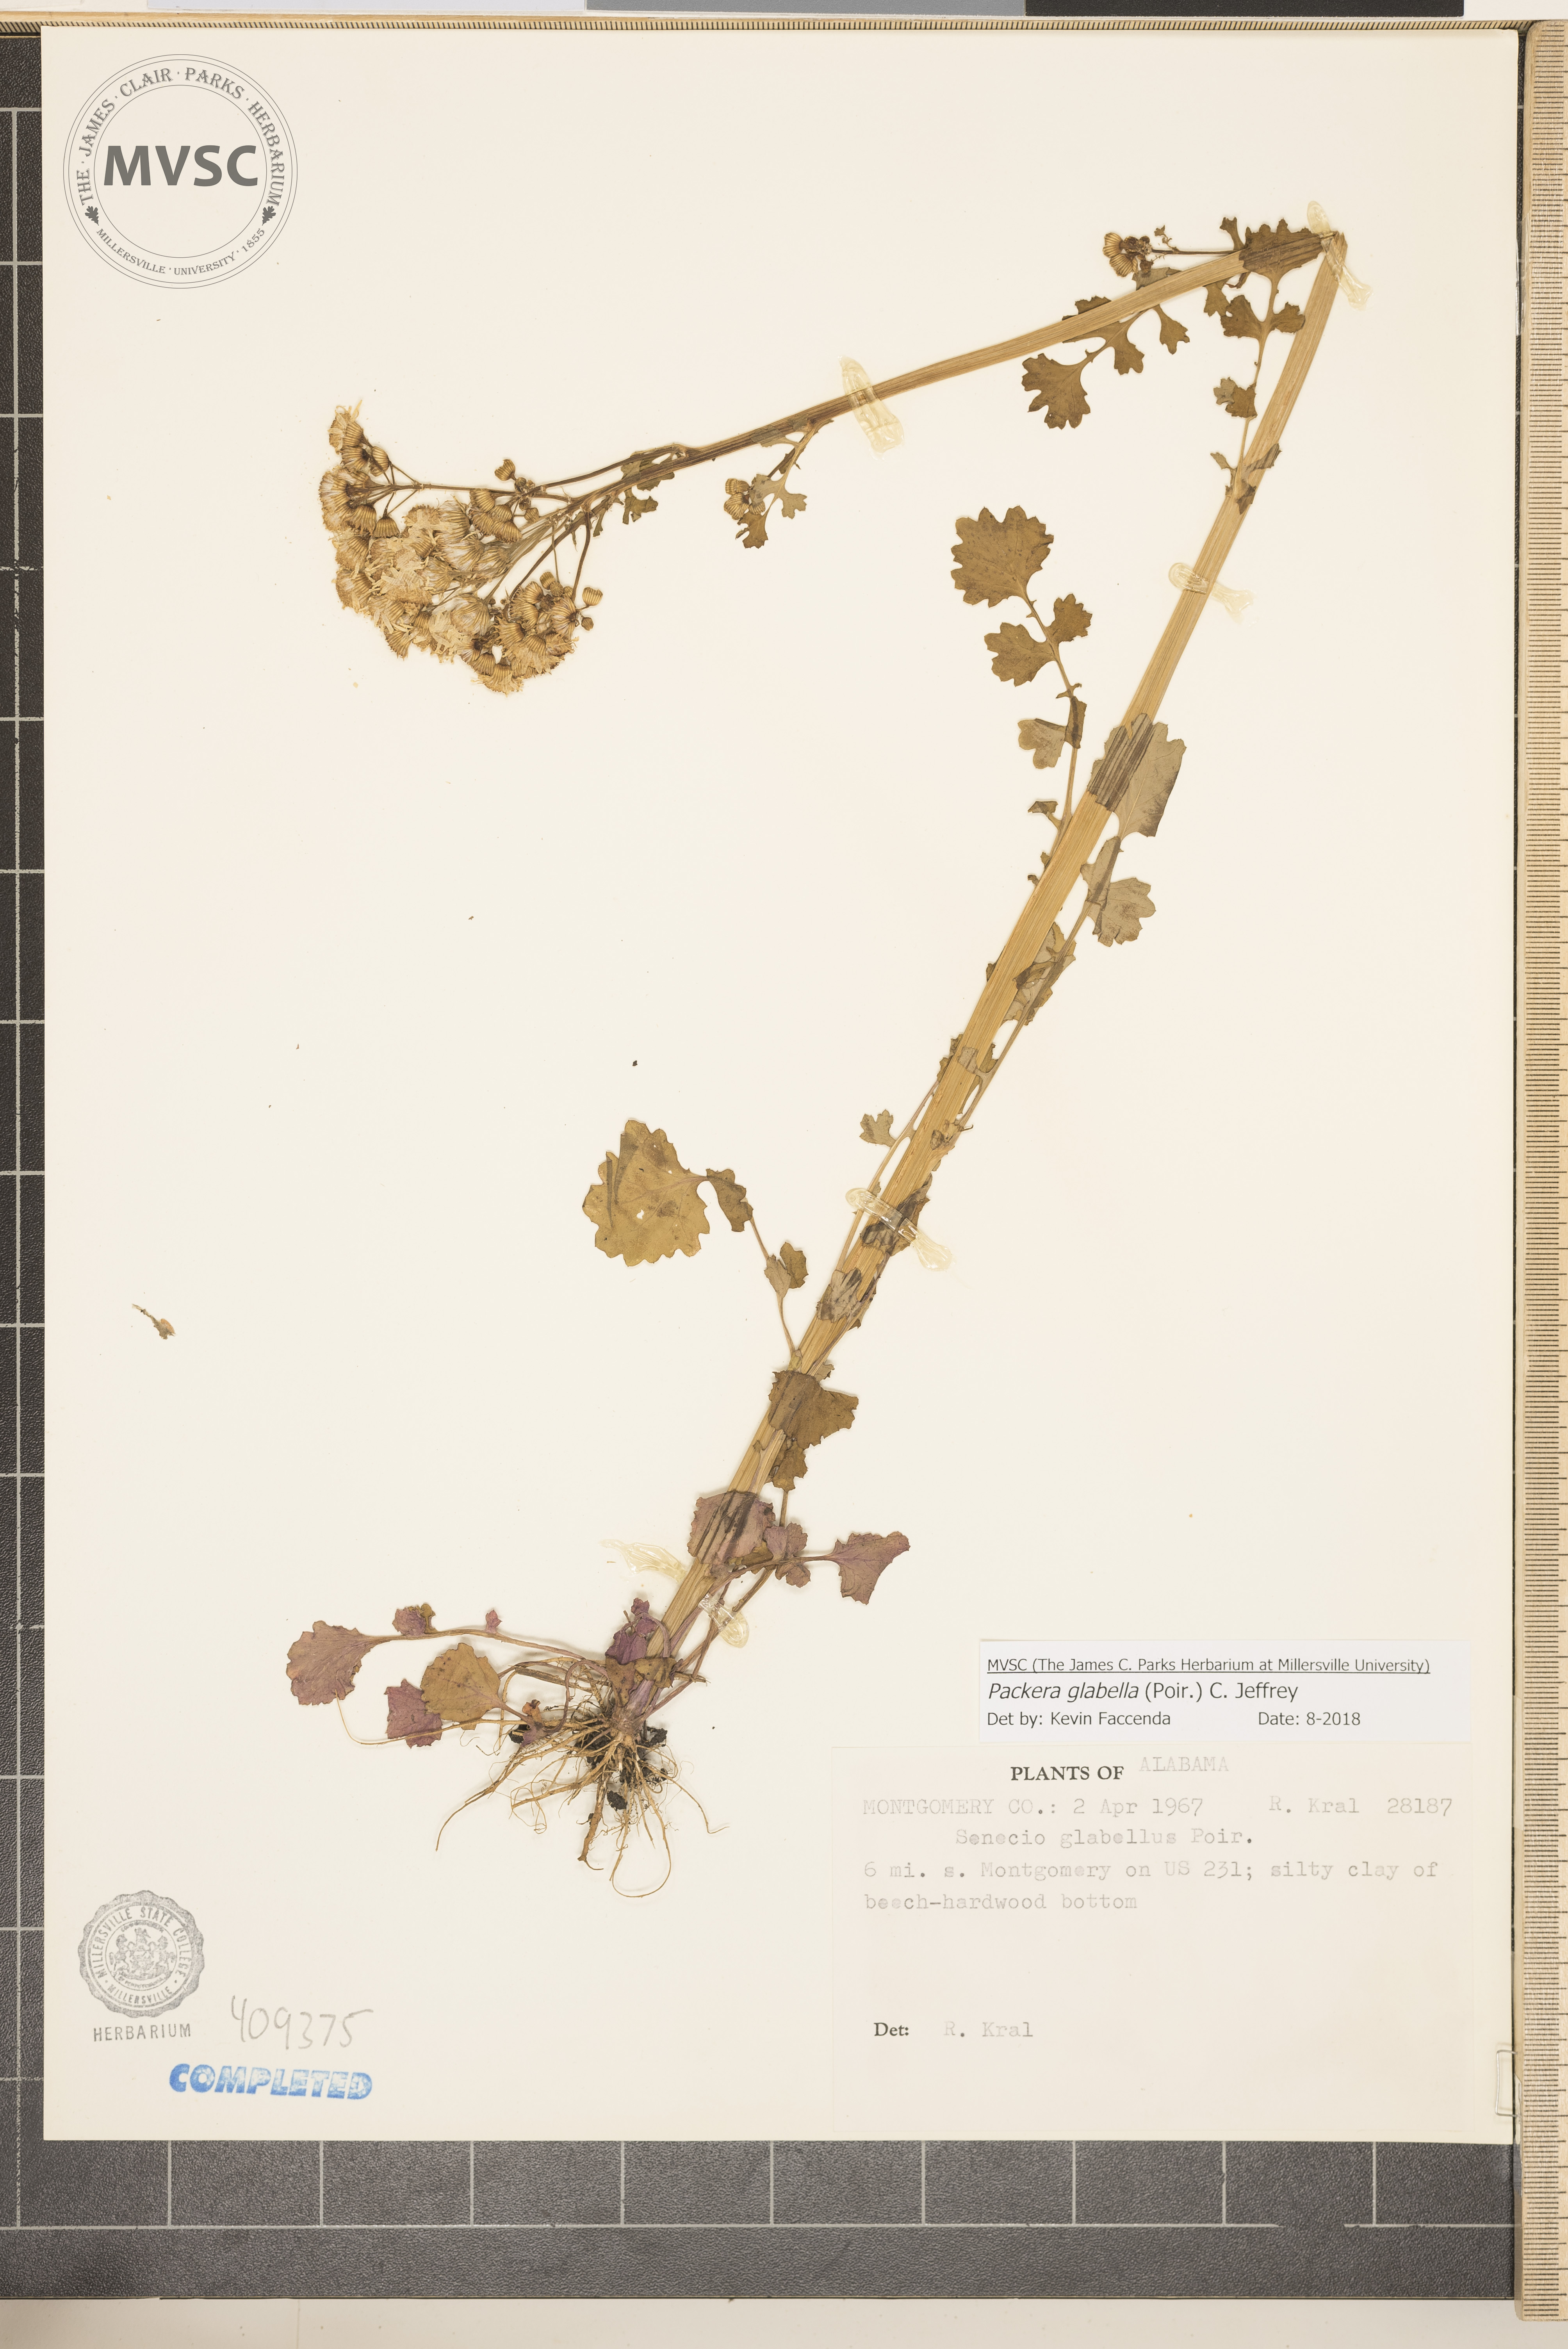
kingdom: Plantae
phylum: Tracheophyta
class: Magnoliopsida
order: Asterales
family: Asteraceae
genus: Packera
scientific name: Packera glabella
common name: Butterweed
